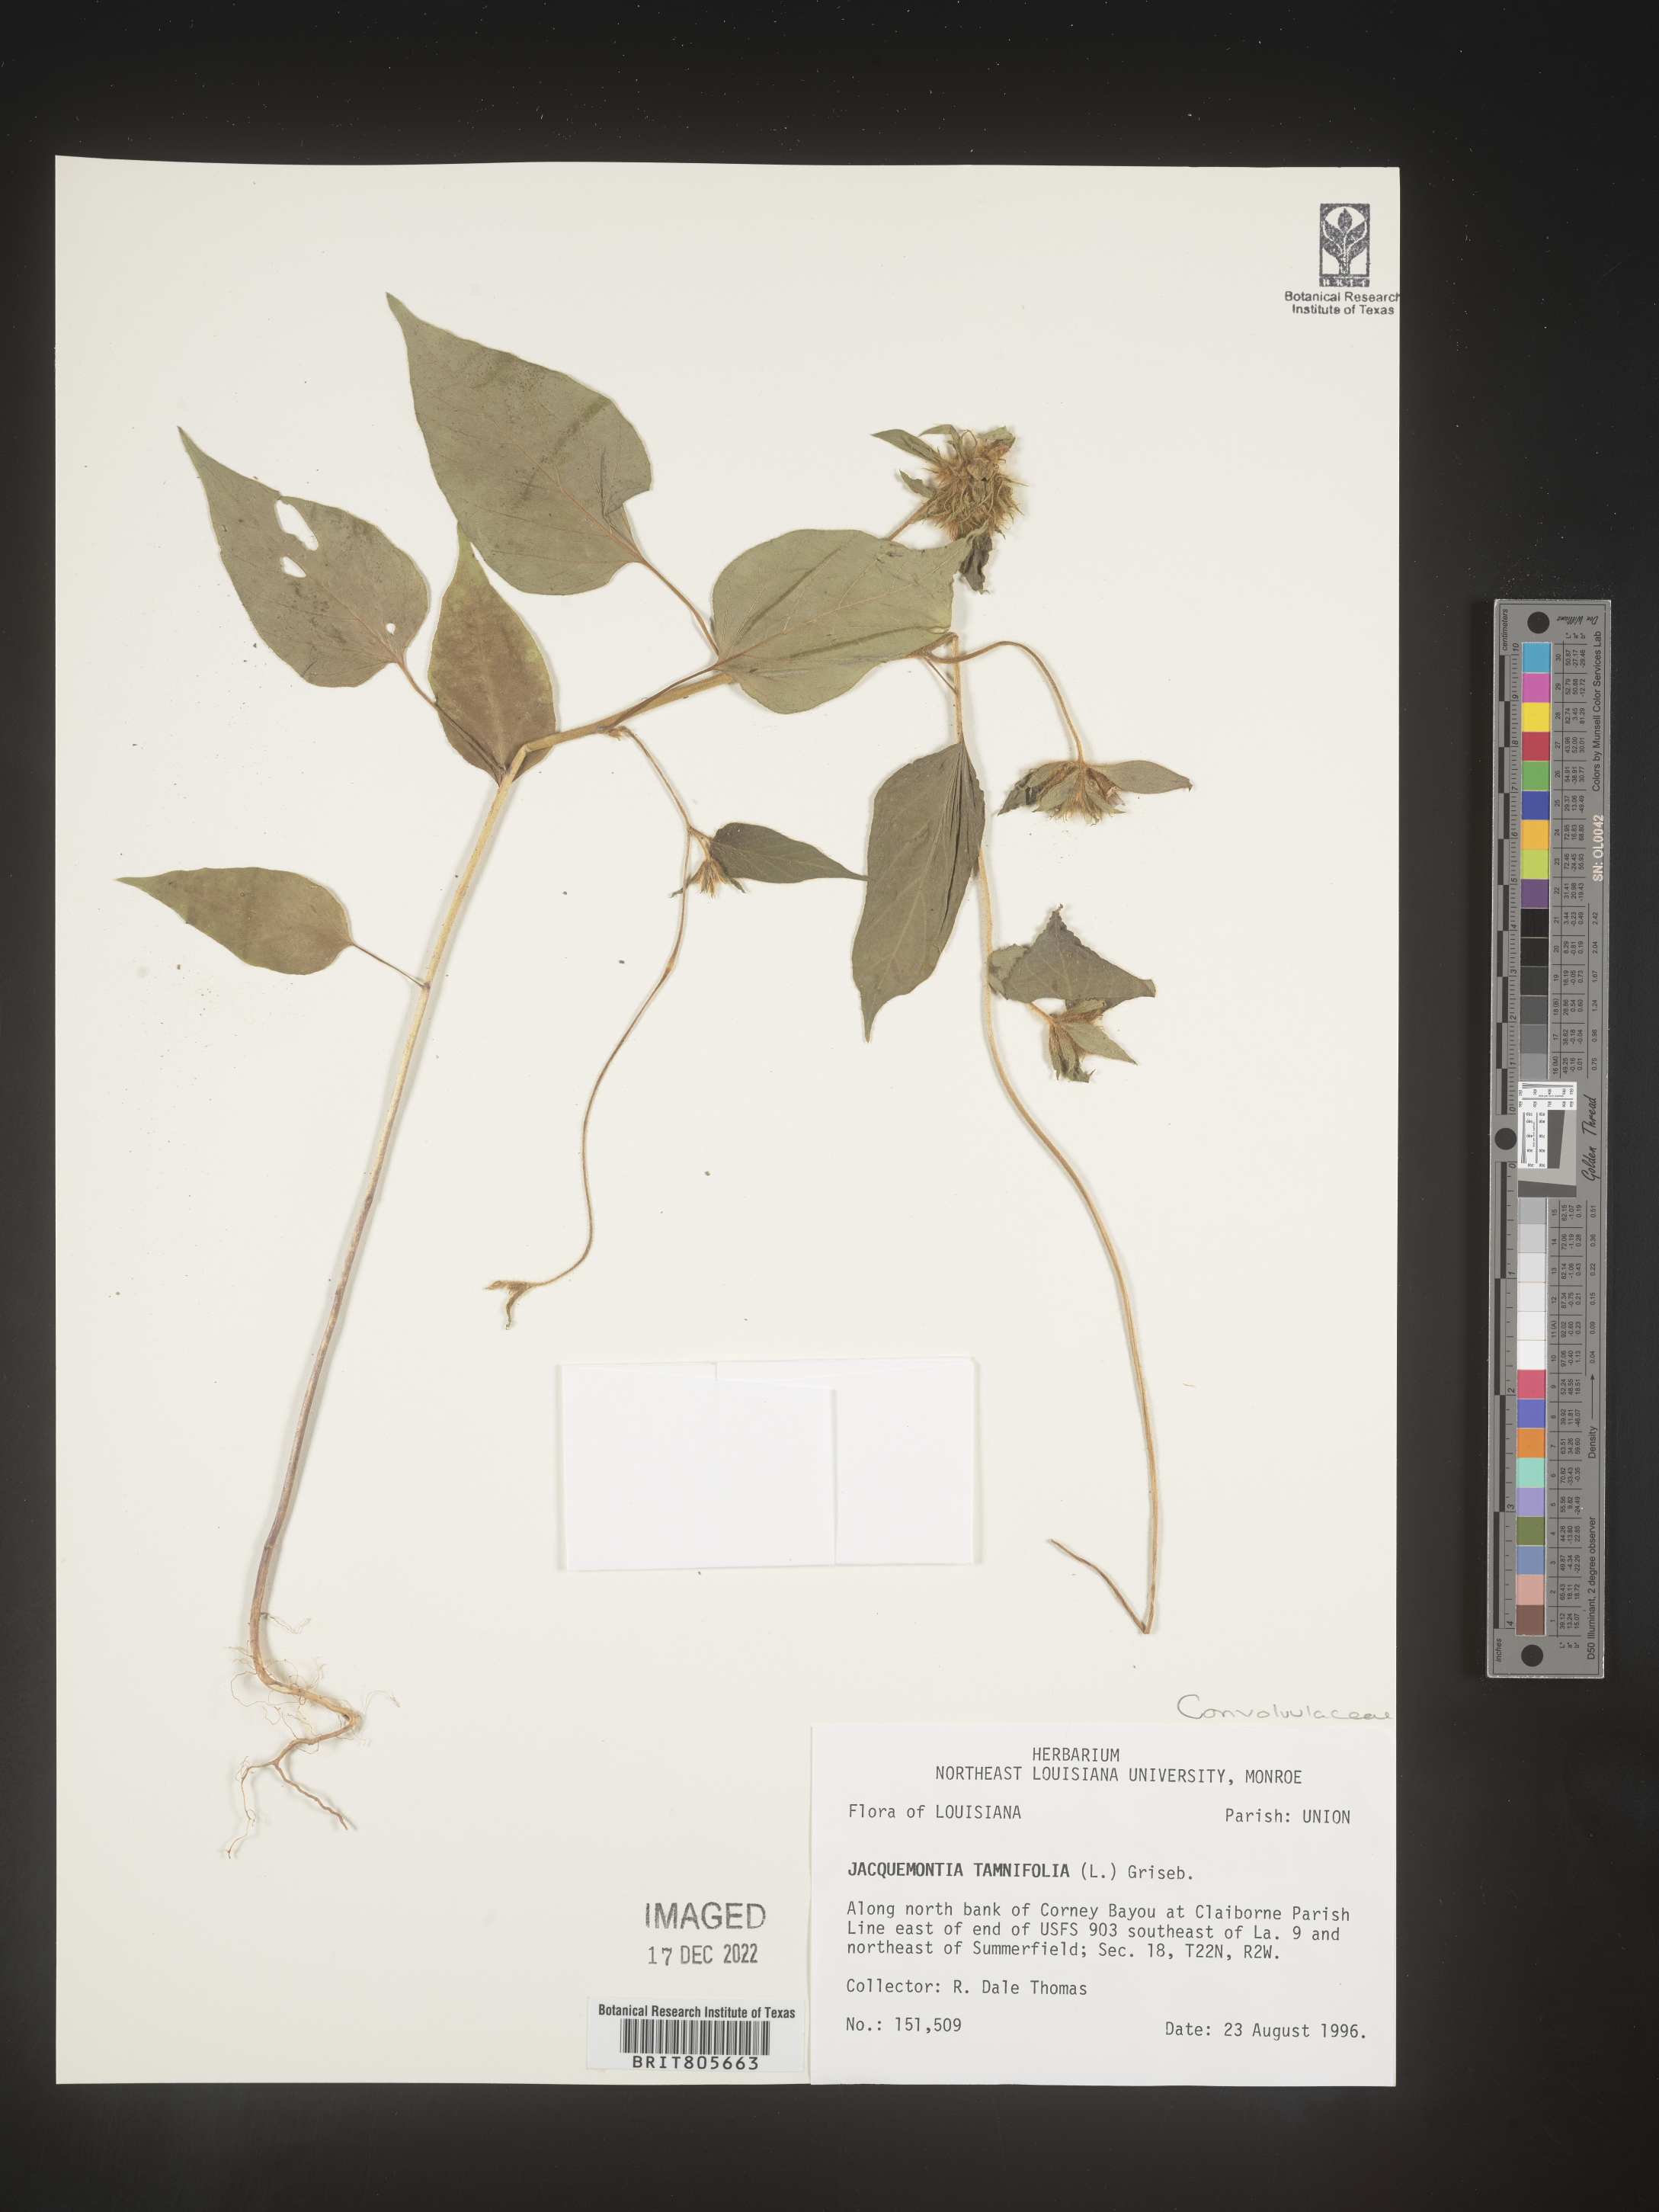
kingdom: Plantae
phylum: Tracheophyta
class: Magnoliopsida
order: Solanales
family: Convolvulaceae
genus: Jacquemontia
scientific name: Jacquemontia tamnifolia
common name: Hairy clustervine
